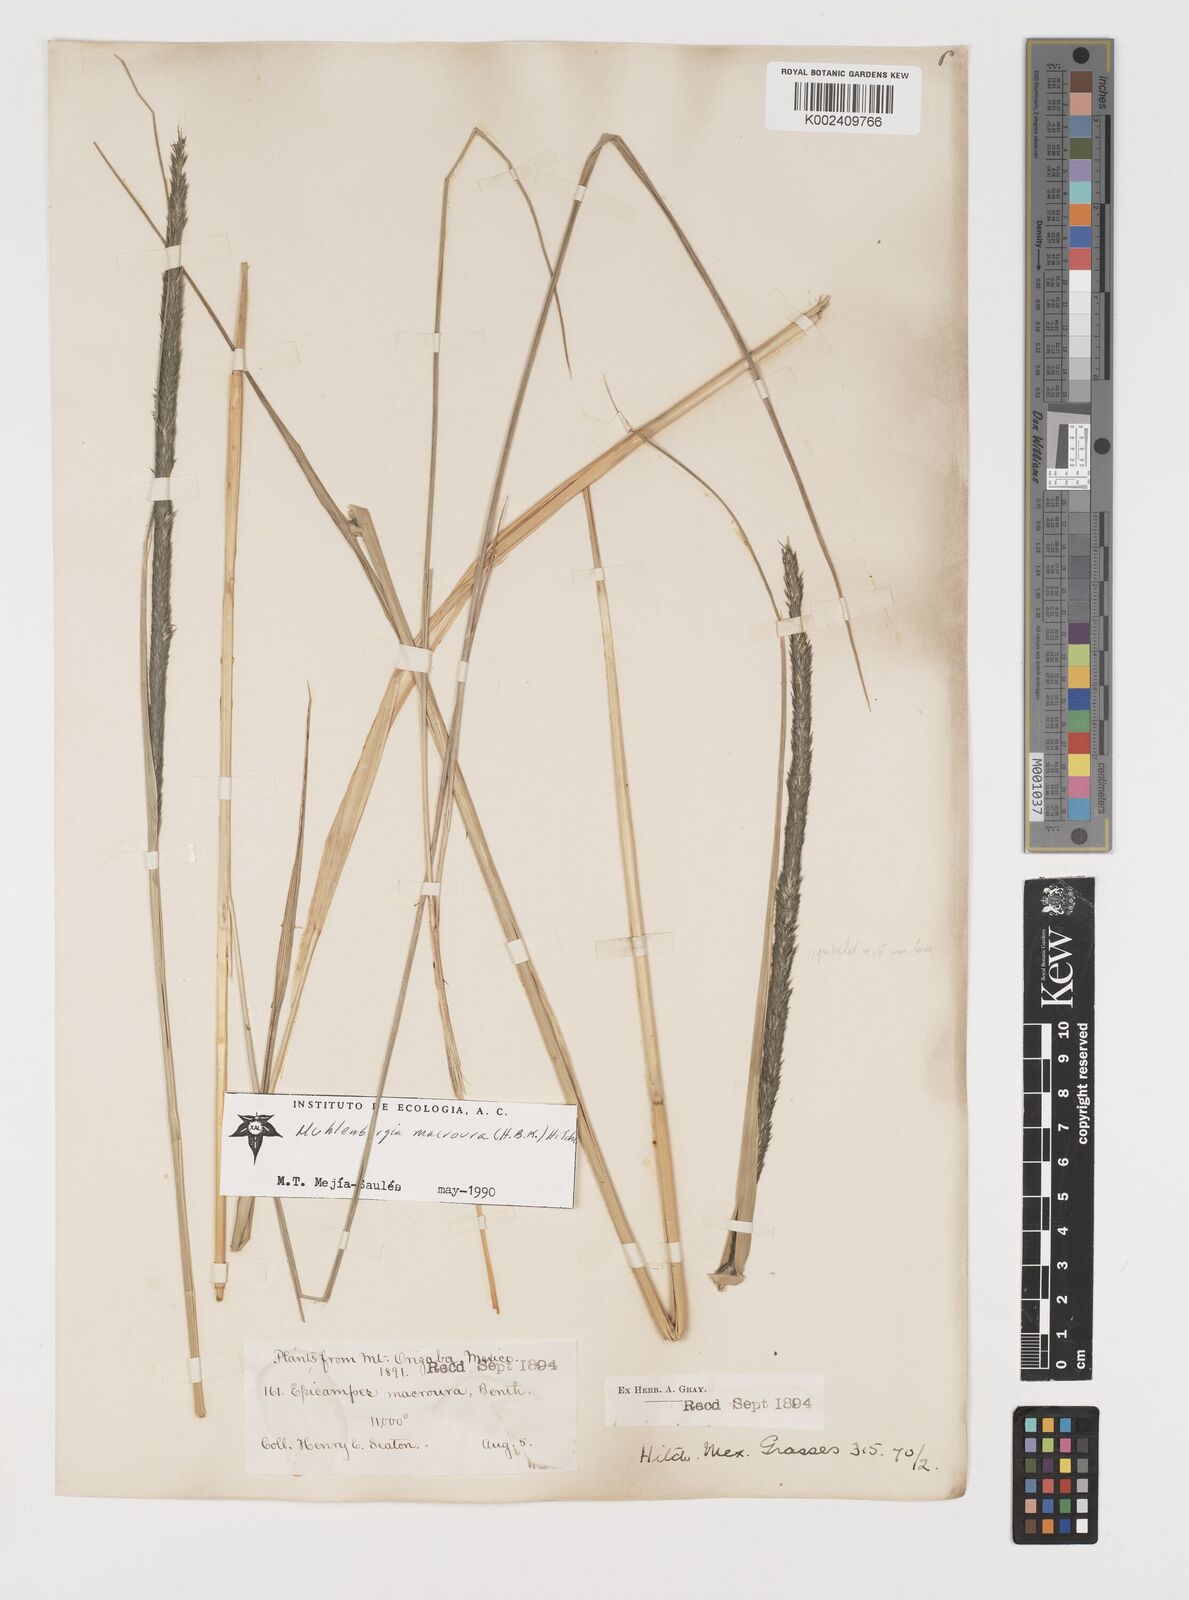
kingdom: Plantae
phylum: Tracheophyta
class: Liliopsida
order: Poales
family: Poaceae
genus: Muhlenbergia
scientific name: Muhlenbergia macroura
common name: Mexican broomroot
